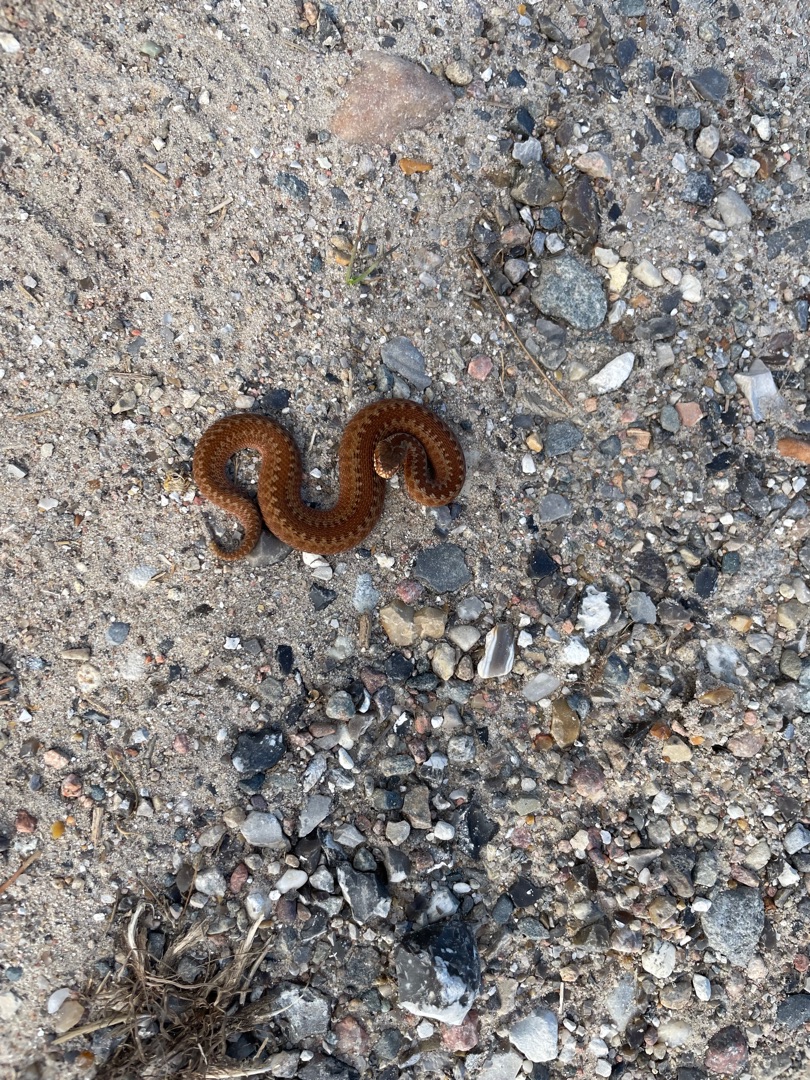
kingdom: Animalia
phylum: Chordata
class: Squamata
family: Viperidae
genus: Vipera
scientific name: Vipera berus
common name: Hugorm
